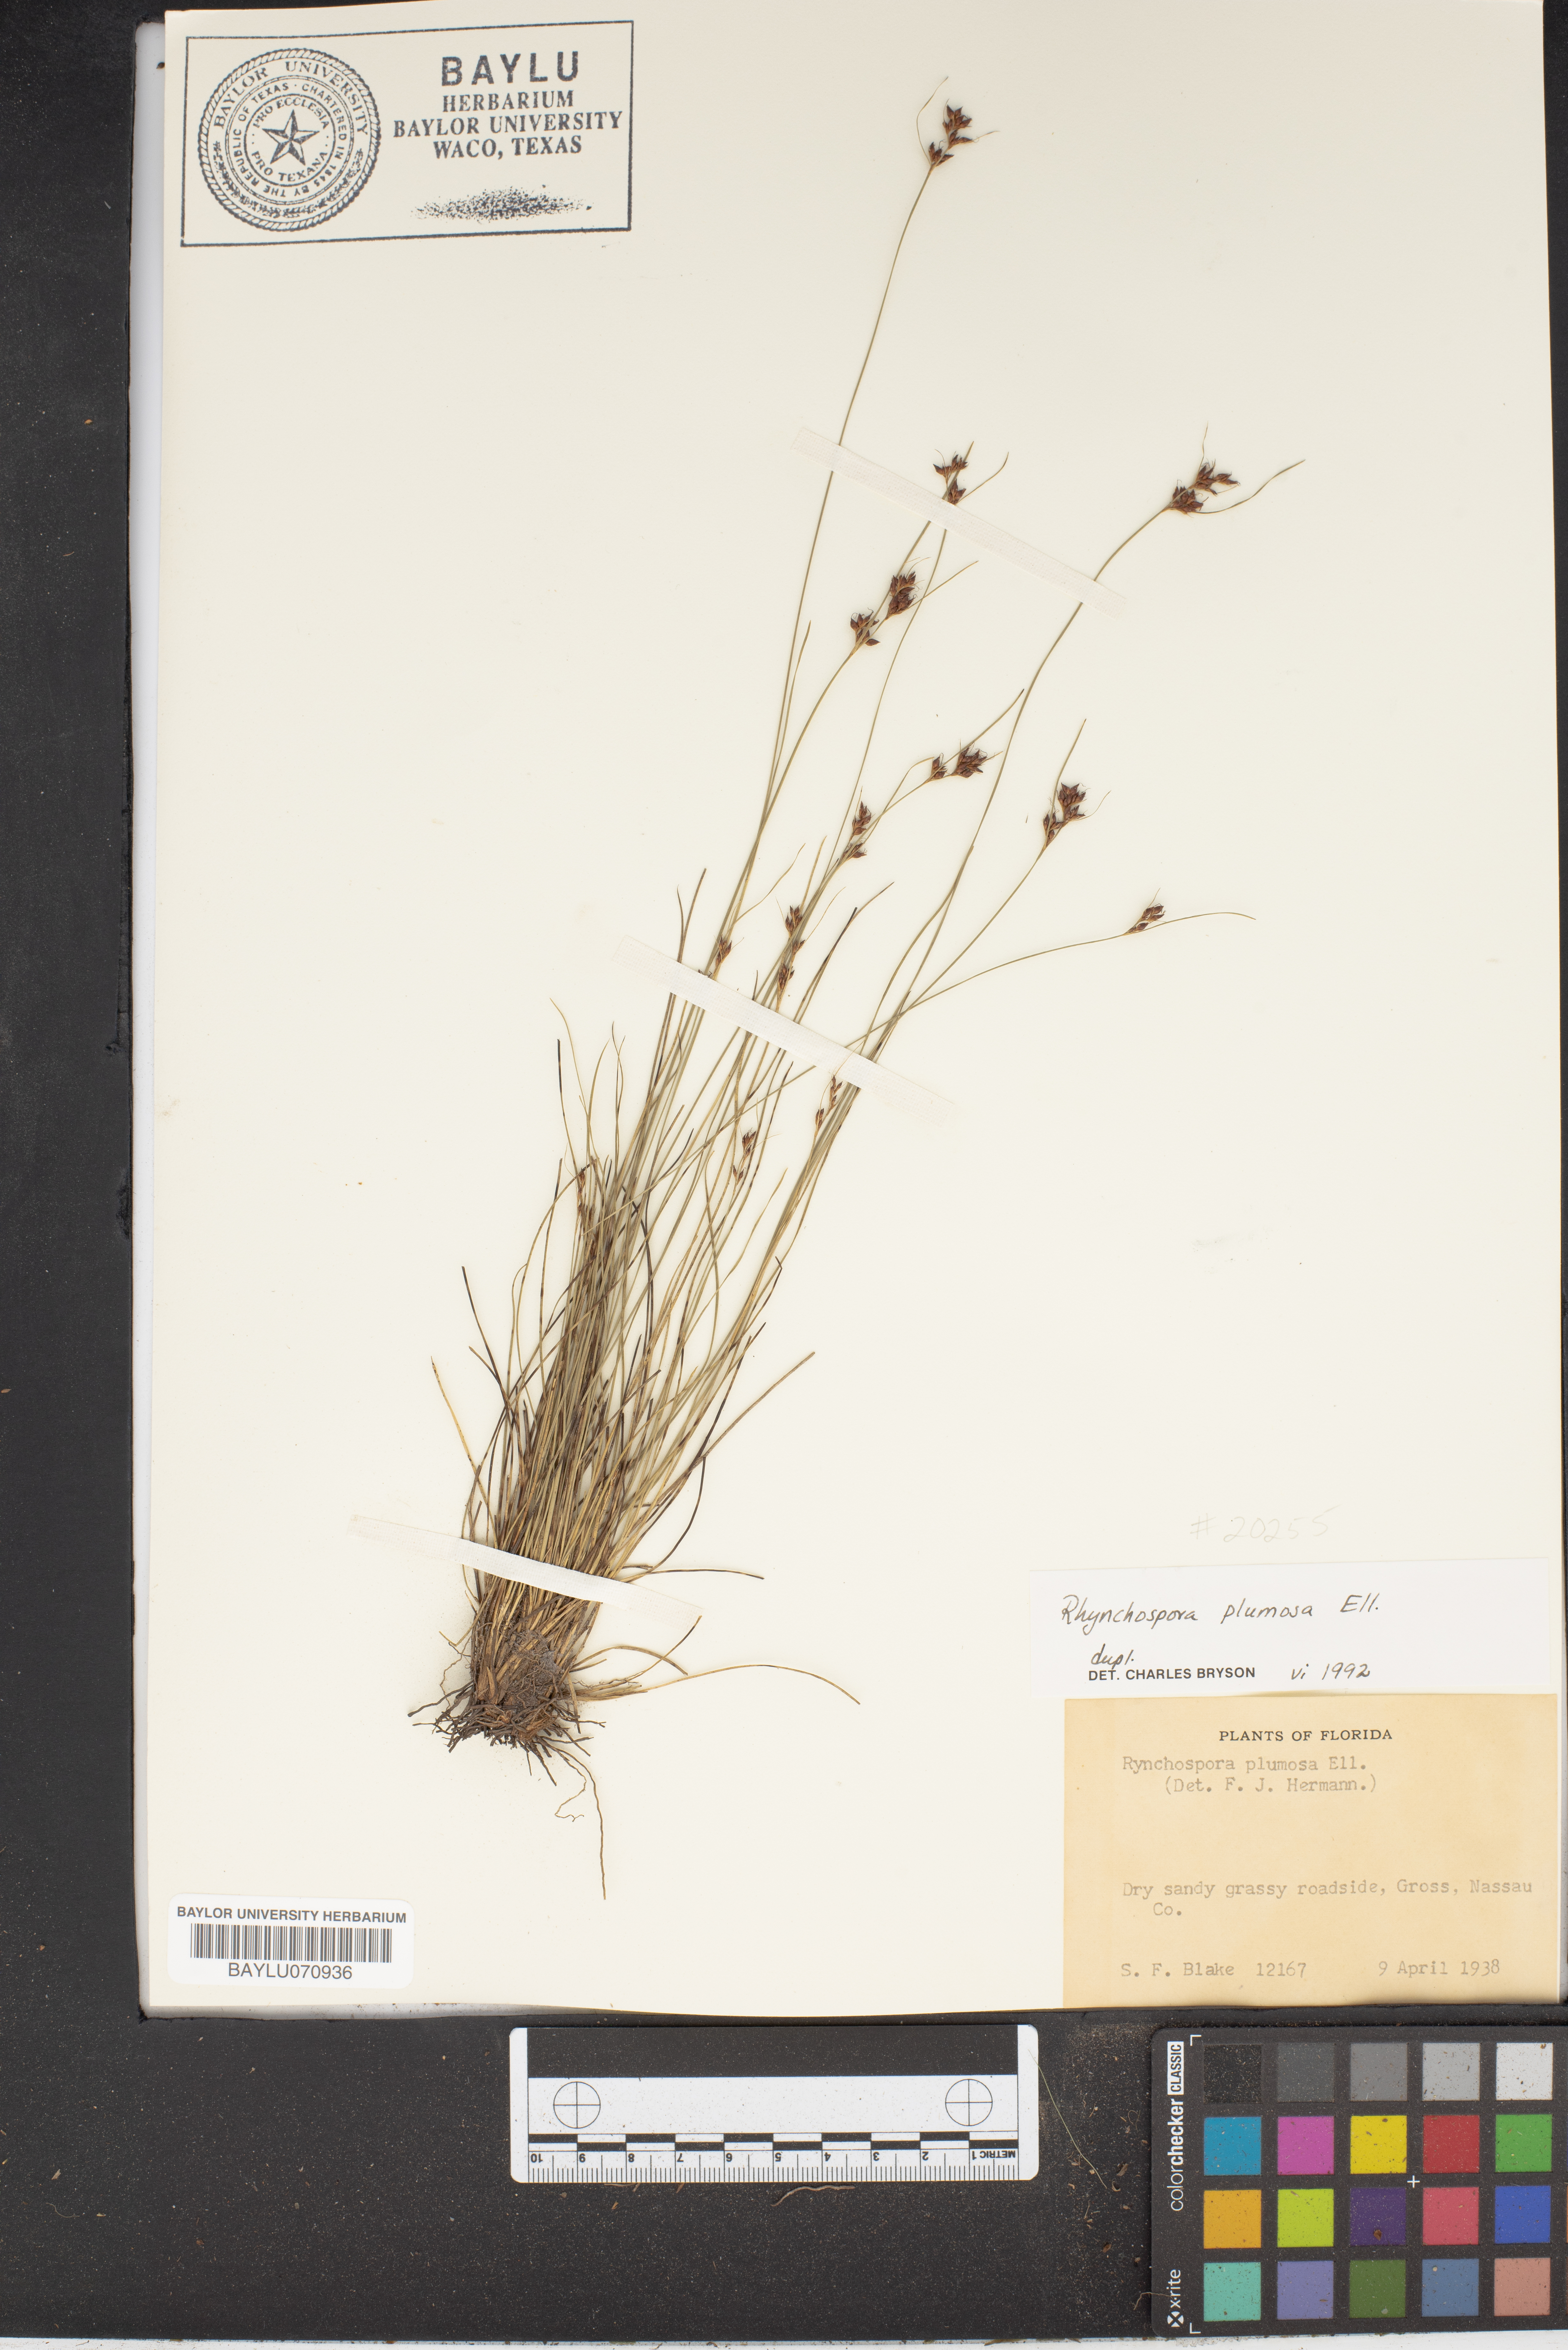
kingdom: Plantae
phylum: Tracheophyta
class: Liliopsida
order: Poales
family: Cyperaceae
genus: Rhynchospora
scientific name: Rhynchospora plumosa
